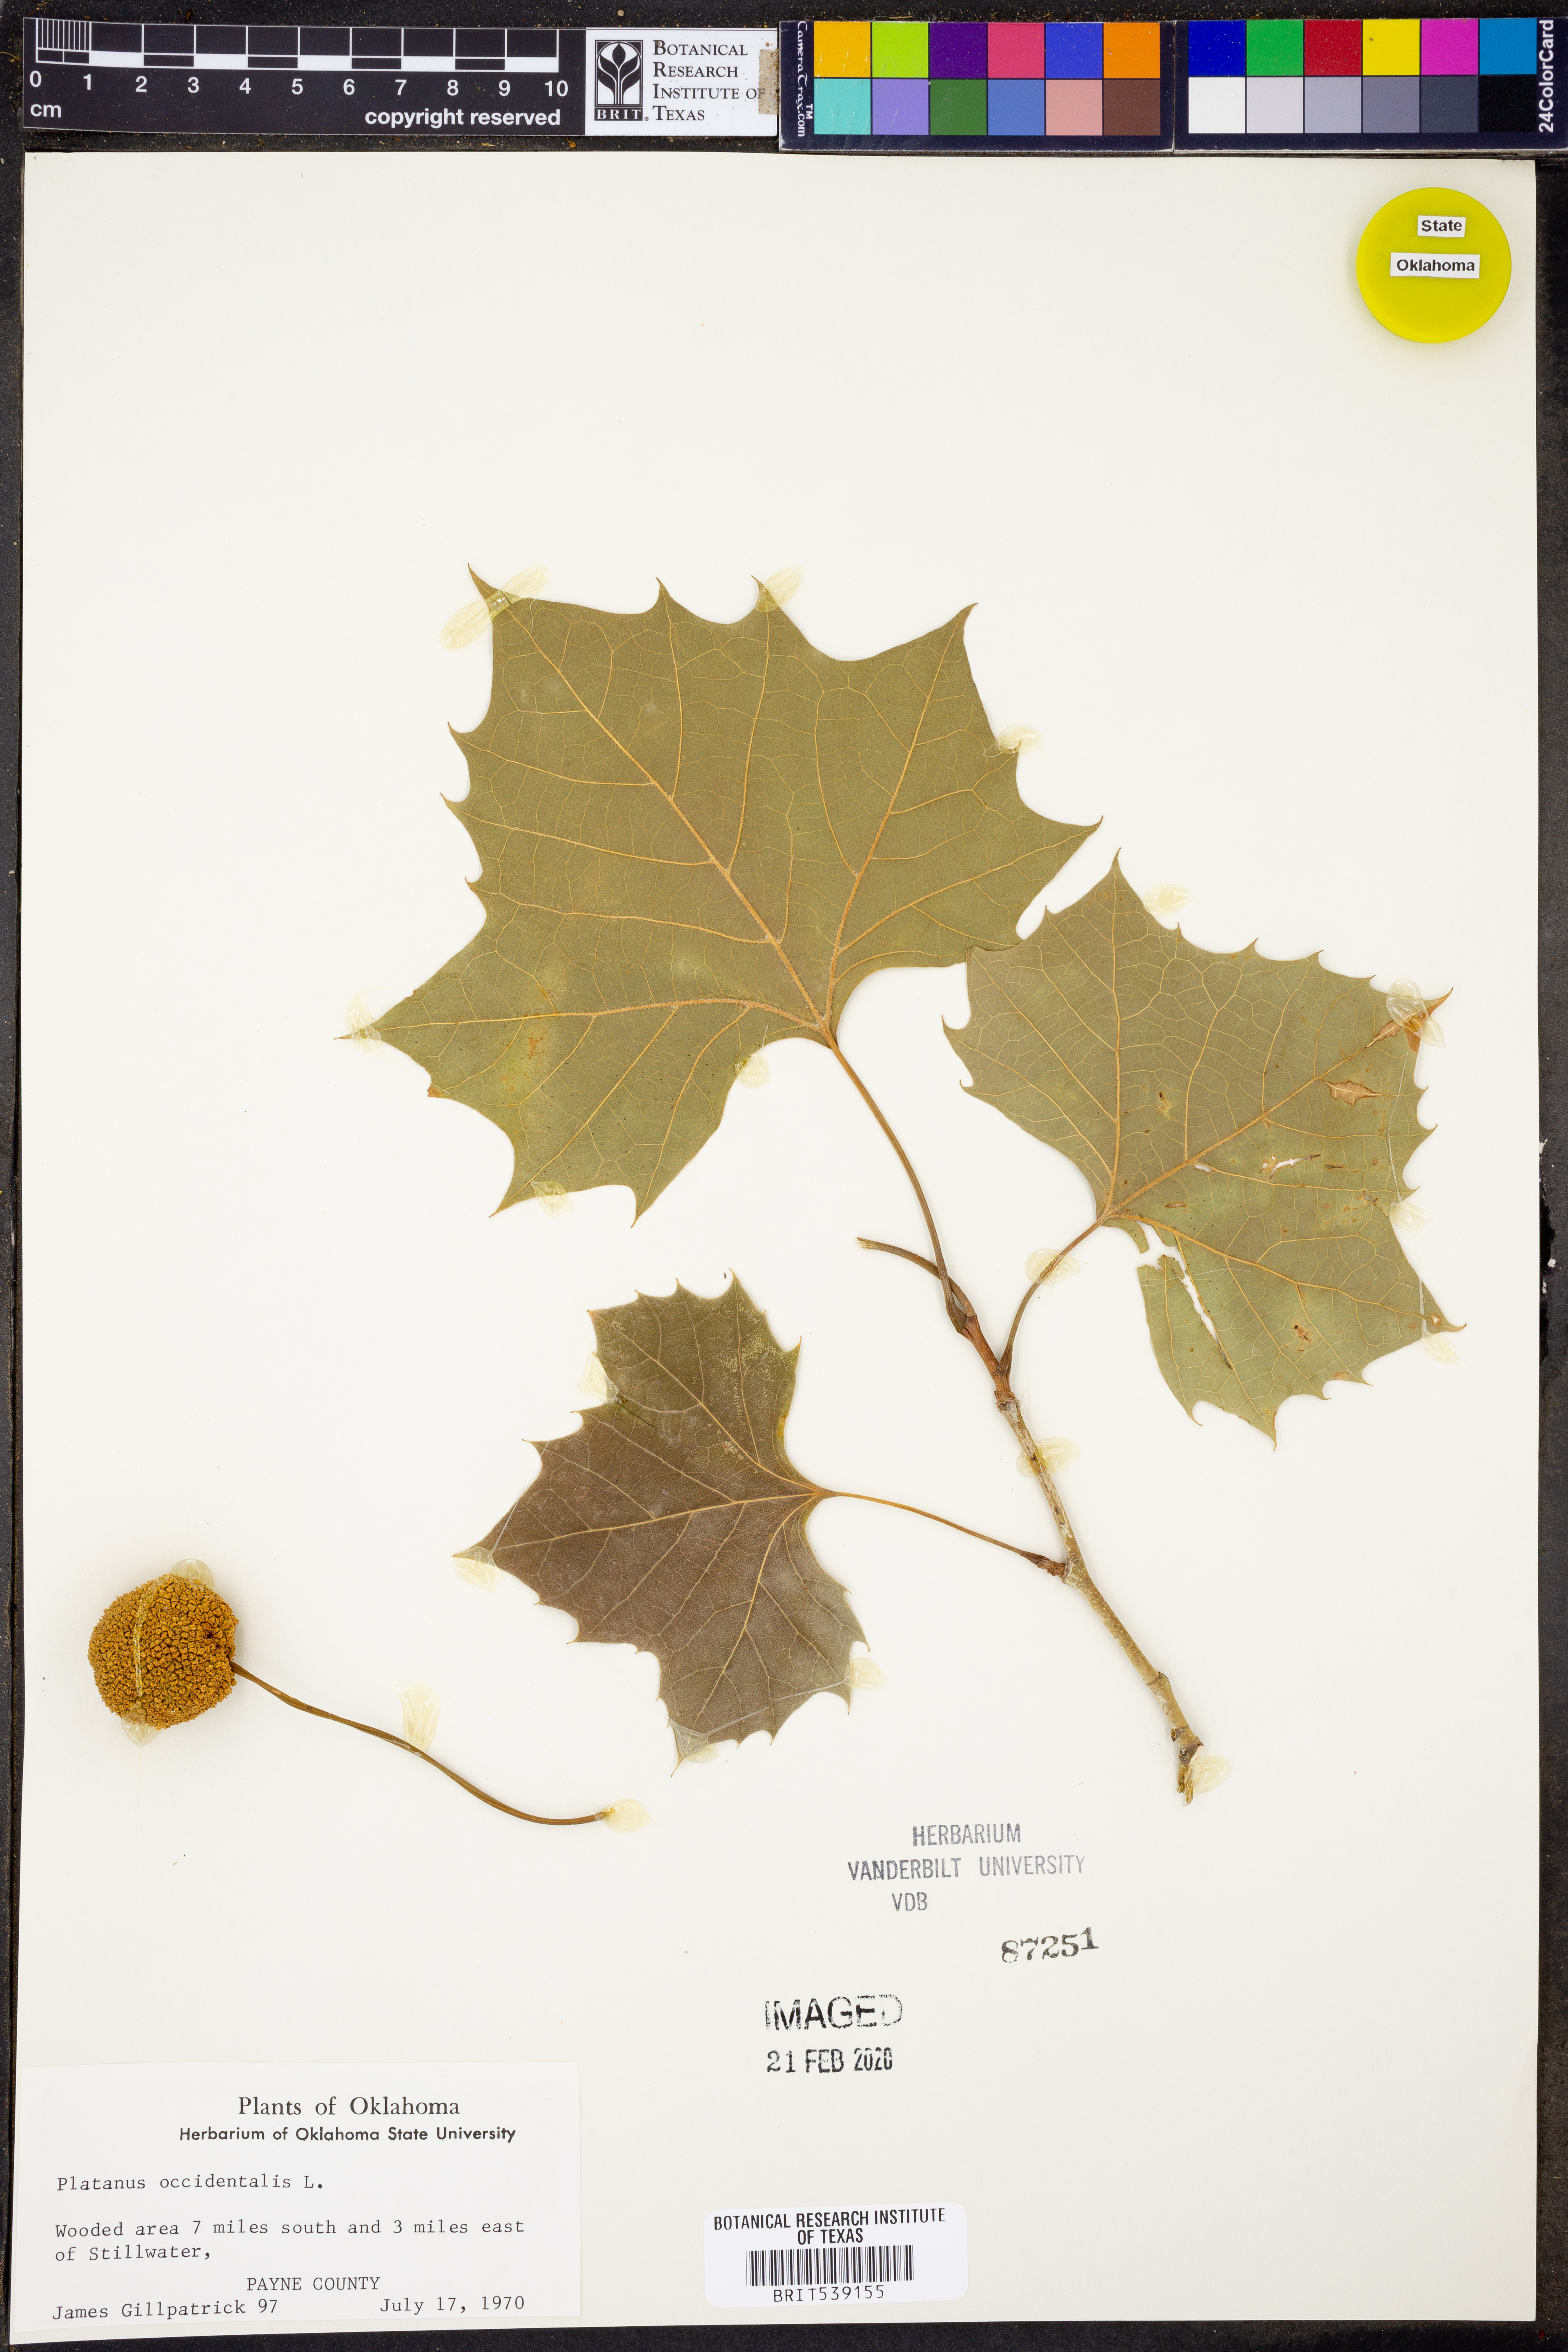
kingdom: Plantae
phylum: Tracheophyta
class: Magnoliopsida
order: Proteales
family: Platanaceae
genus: Platanus
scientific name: Platanus occidentalis
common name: American sycamore
